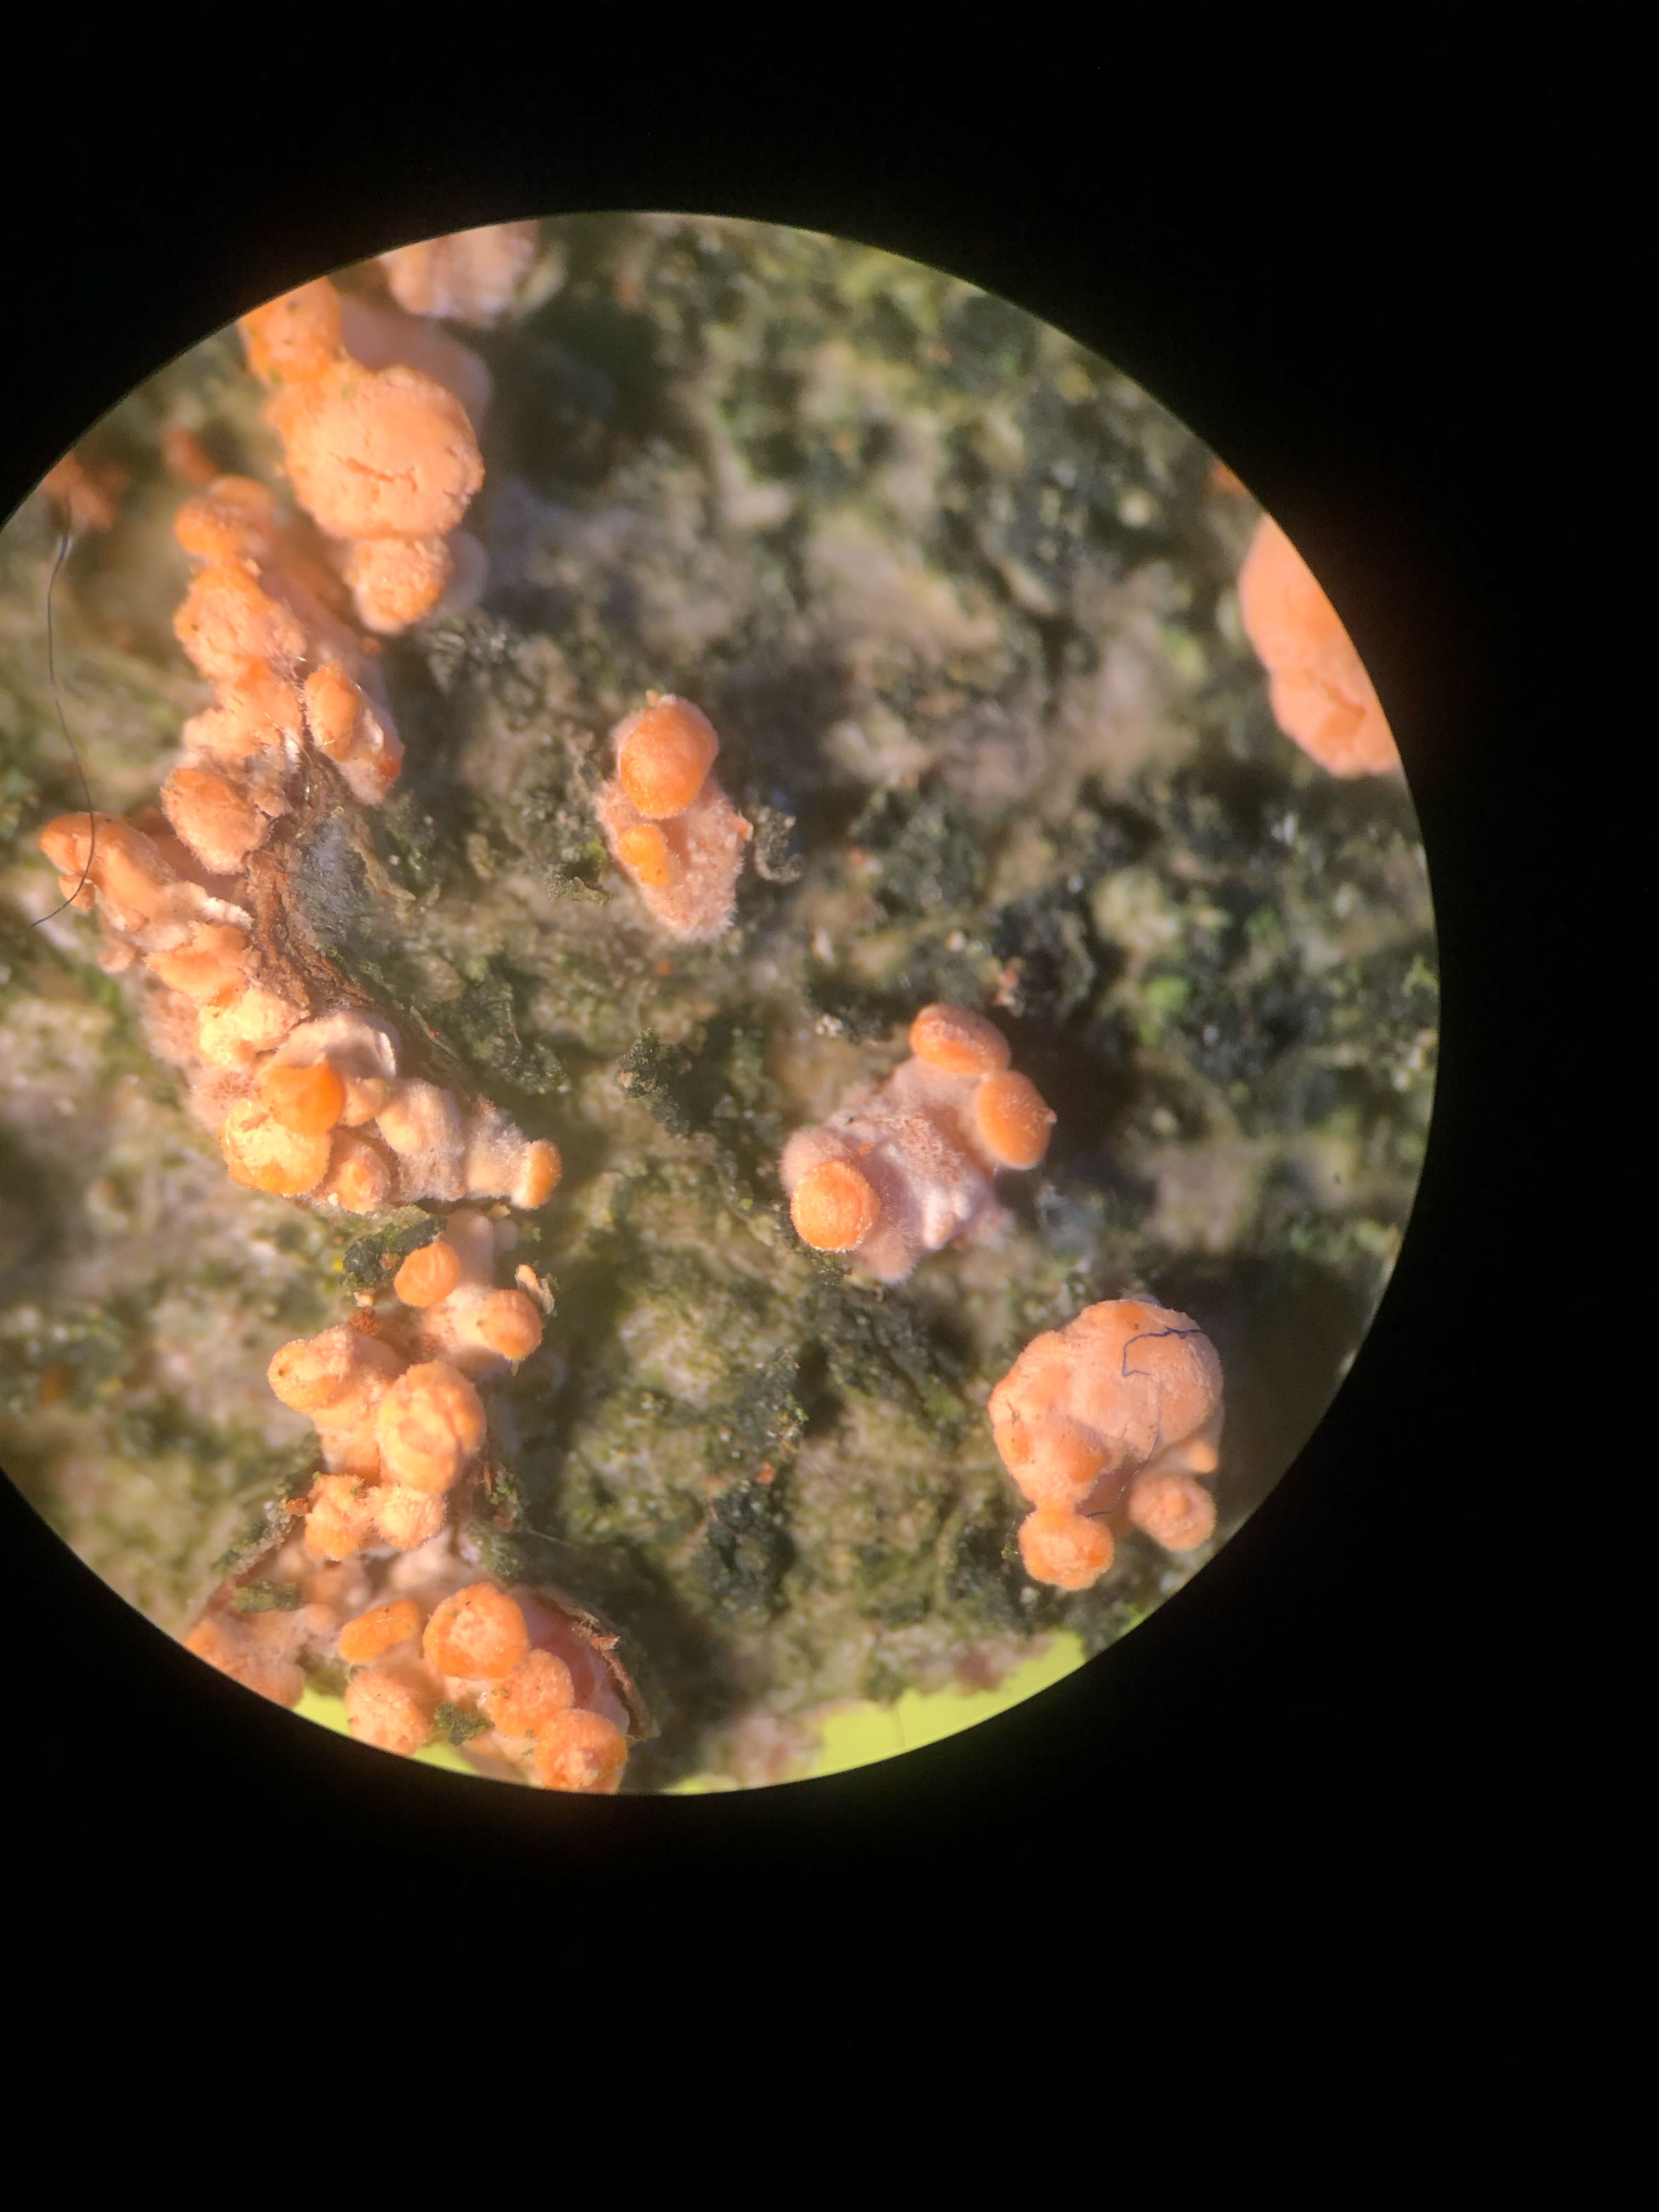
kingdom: Fungi
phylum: Ascomycota
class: Sordariomycetes
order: Hypocreales
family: Nectriaceae
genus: Nectria
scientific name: Nectria cinnabarina
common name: almindelig cinnobersvamp
